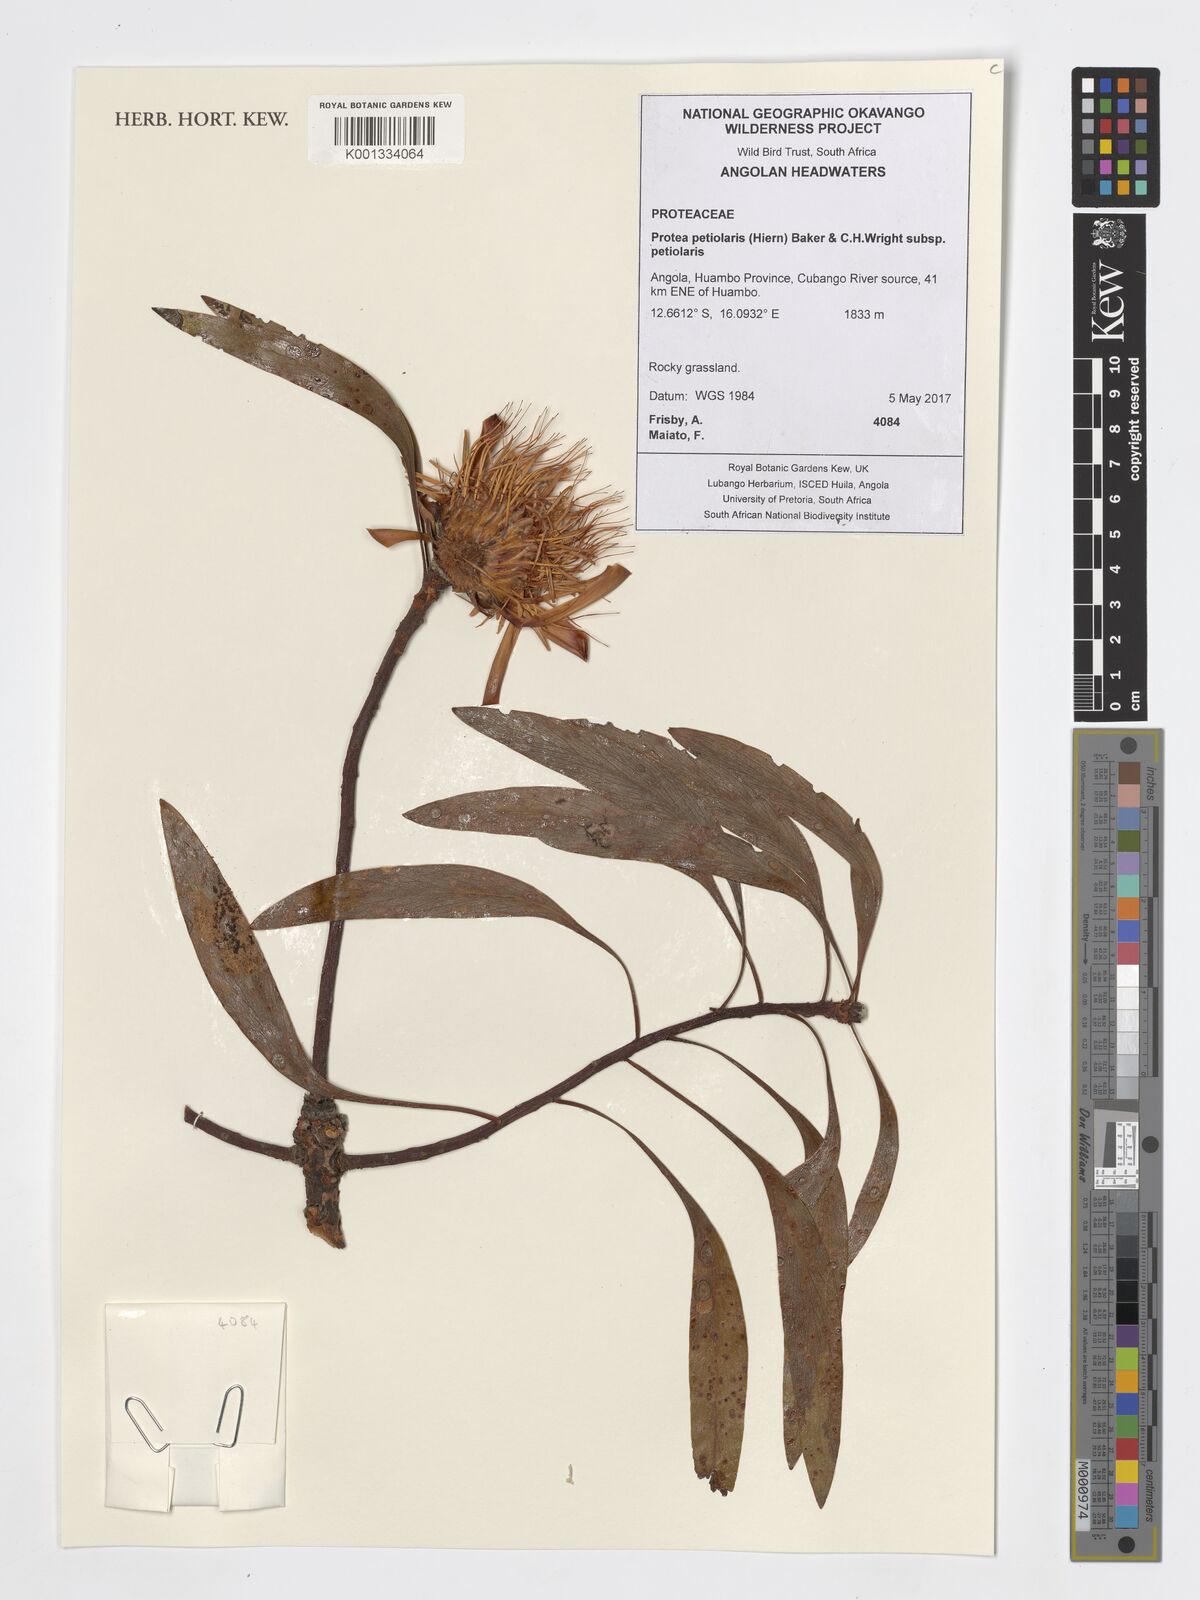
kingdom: Plantae
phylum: Tracheophyta
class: Magnoliopsida
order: Proteales
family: Proteaceae
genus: Protea
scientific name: Protea petiolaris
